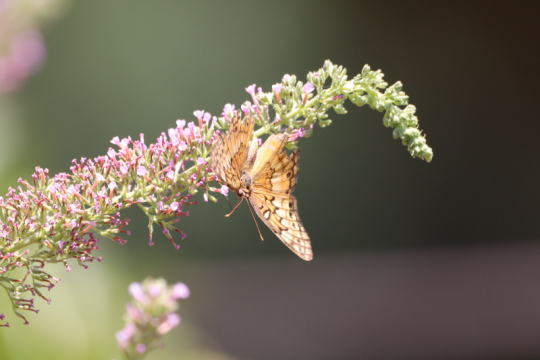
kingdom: Animalia
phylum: Arthropoda
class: Insecta
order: Lepidoptera
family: Nymphalidae
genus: Euptoieta
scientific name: Euptoieta claudia
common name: Variegated Fritillary
